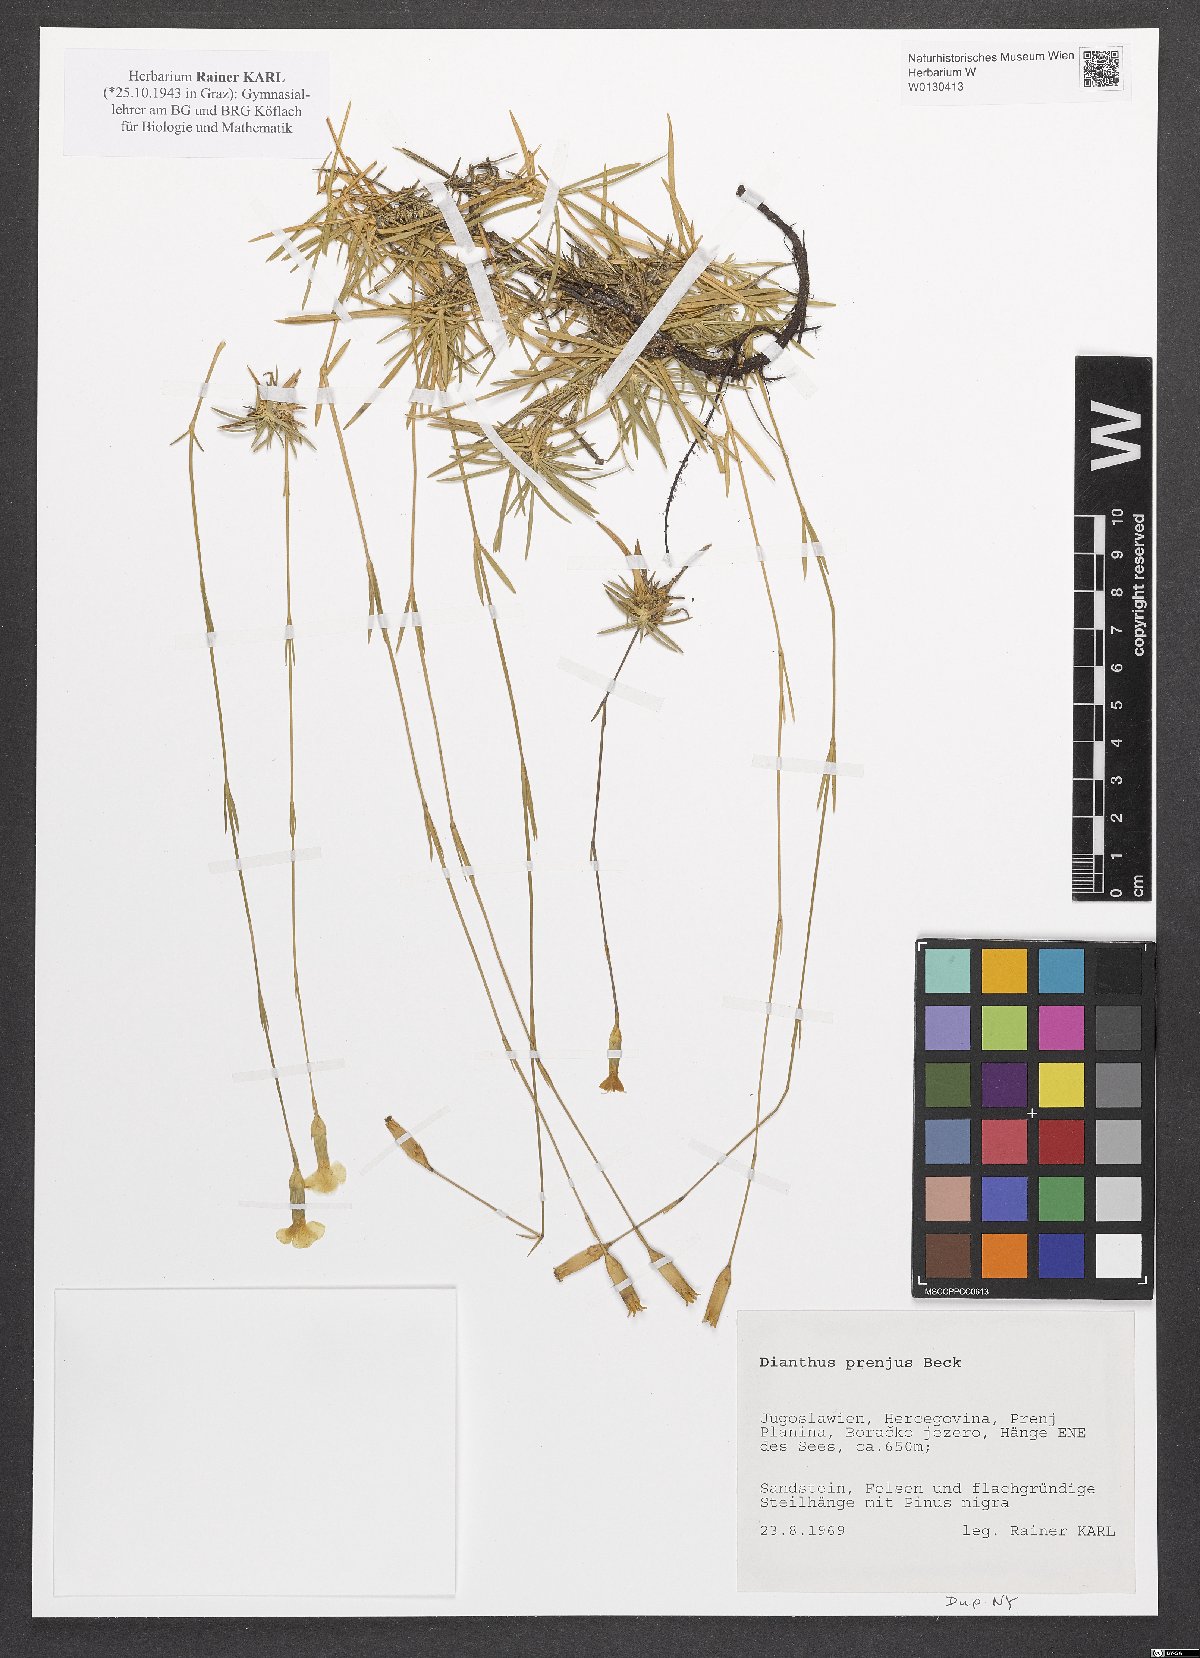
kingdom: Plantae
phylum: Tracheophyta
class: Magnoliopsida
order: Caryophyllales
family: Caryophyllaceae
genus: Dianthus
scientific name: Dianthus integer
